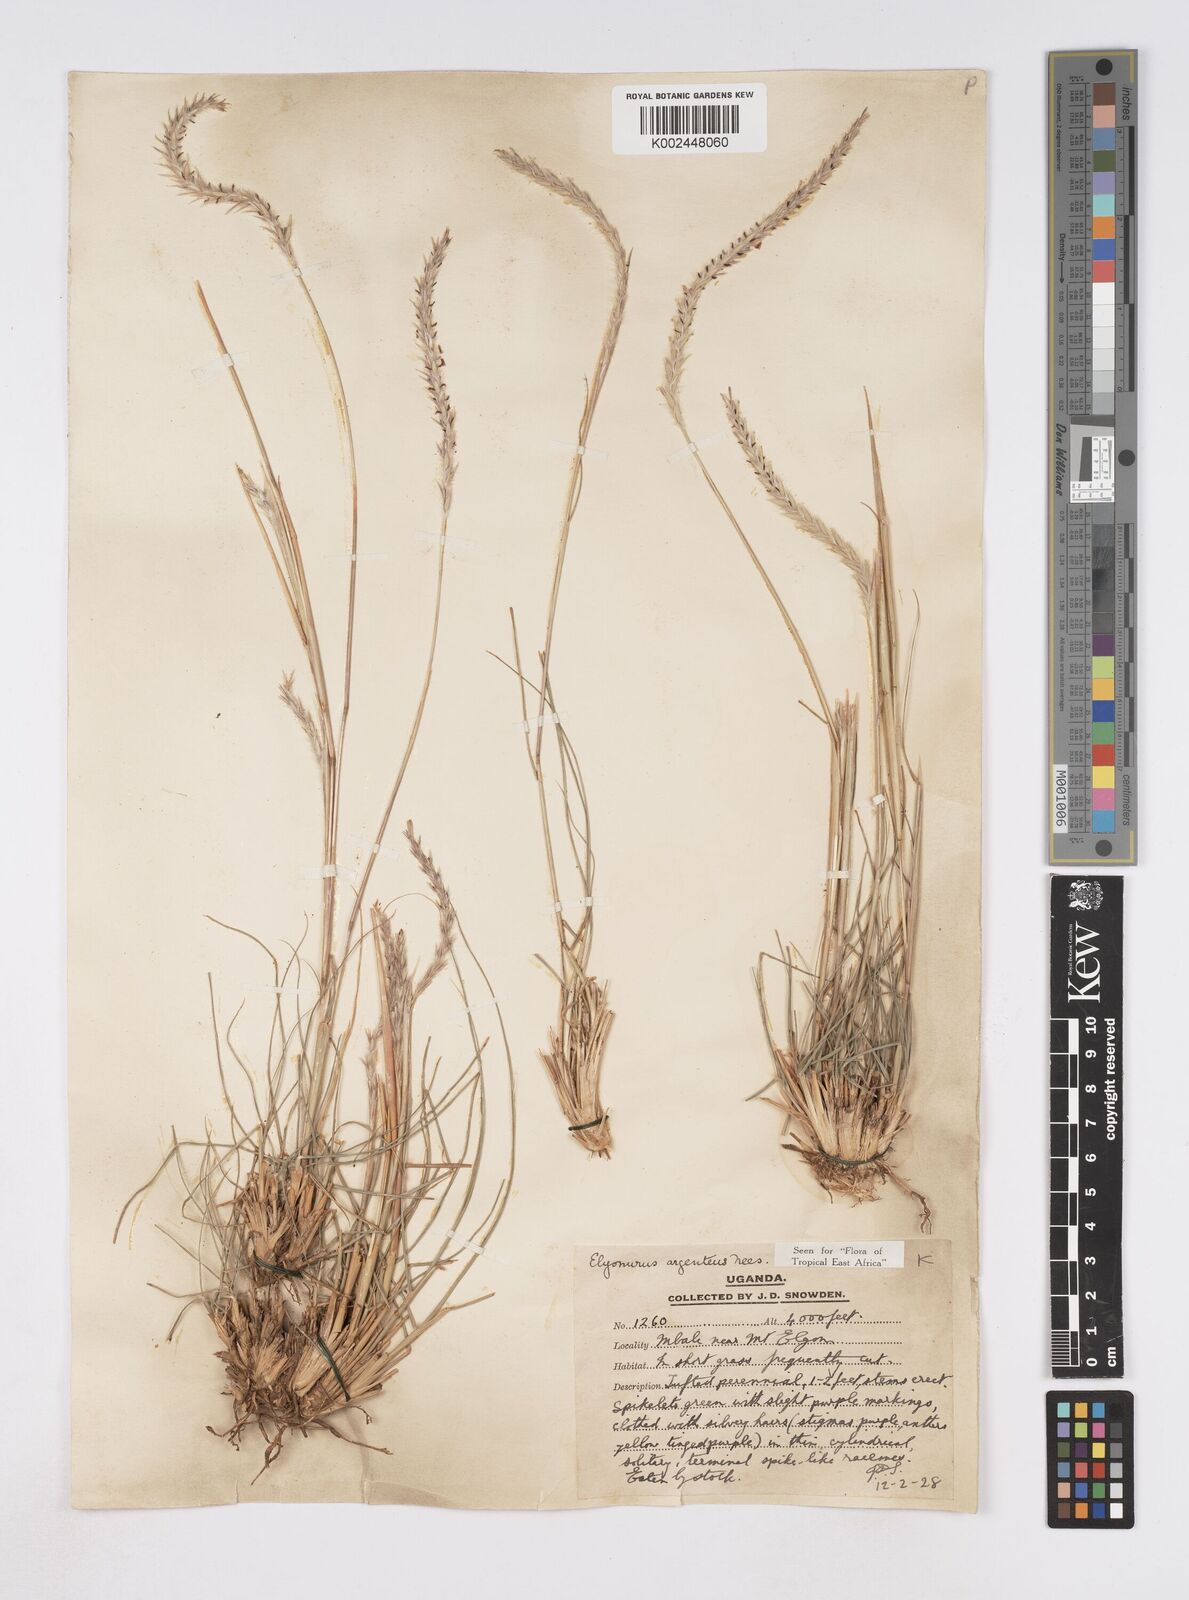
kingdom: Plantae
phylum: Tracheophyta
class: Liliopsida
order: Poales
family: Poaceae
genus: Elionurus
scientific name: Elionurus muticus
